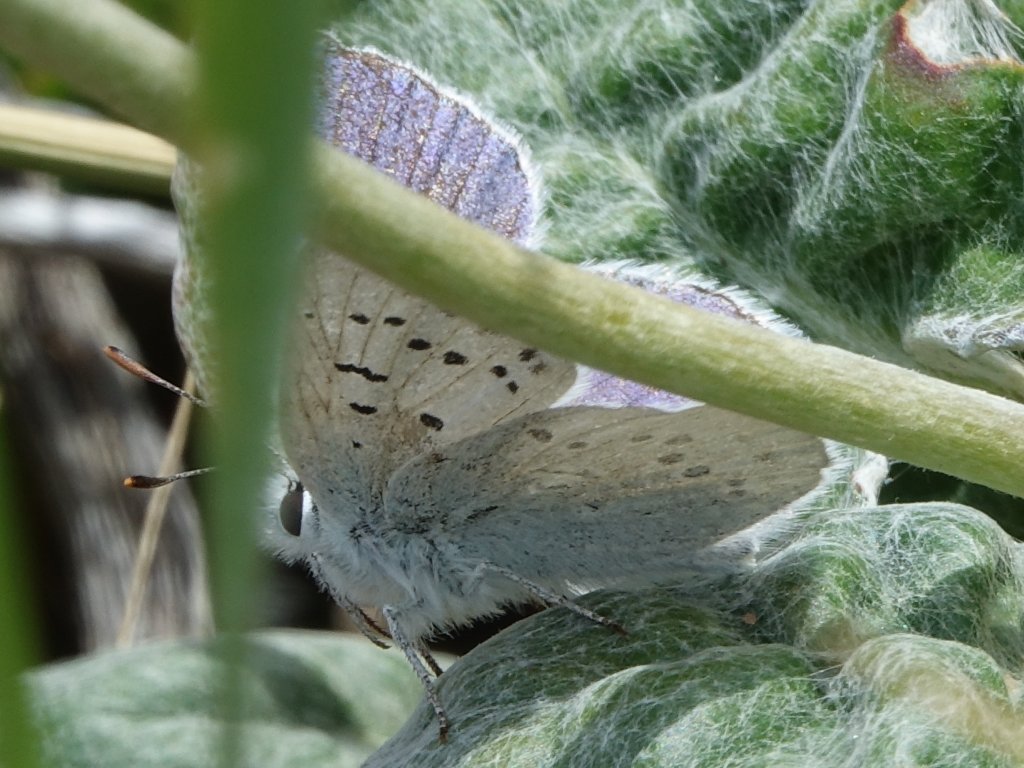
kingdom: Animalia
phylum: Arthropoda
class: Insecta
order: Lepidoptera
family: Lycaenidae
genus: Lycaena
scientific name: Lycaena heteronea
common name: Blue Copper
